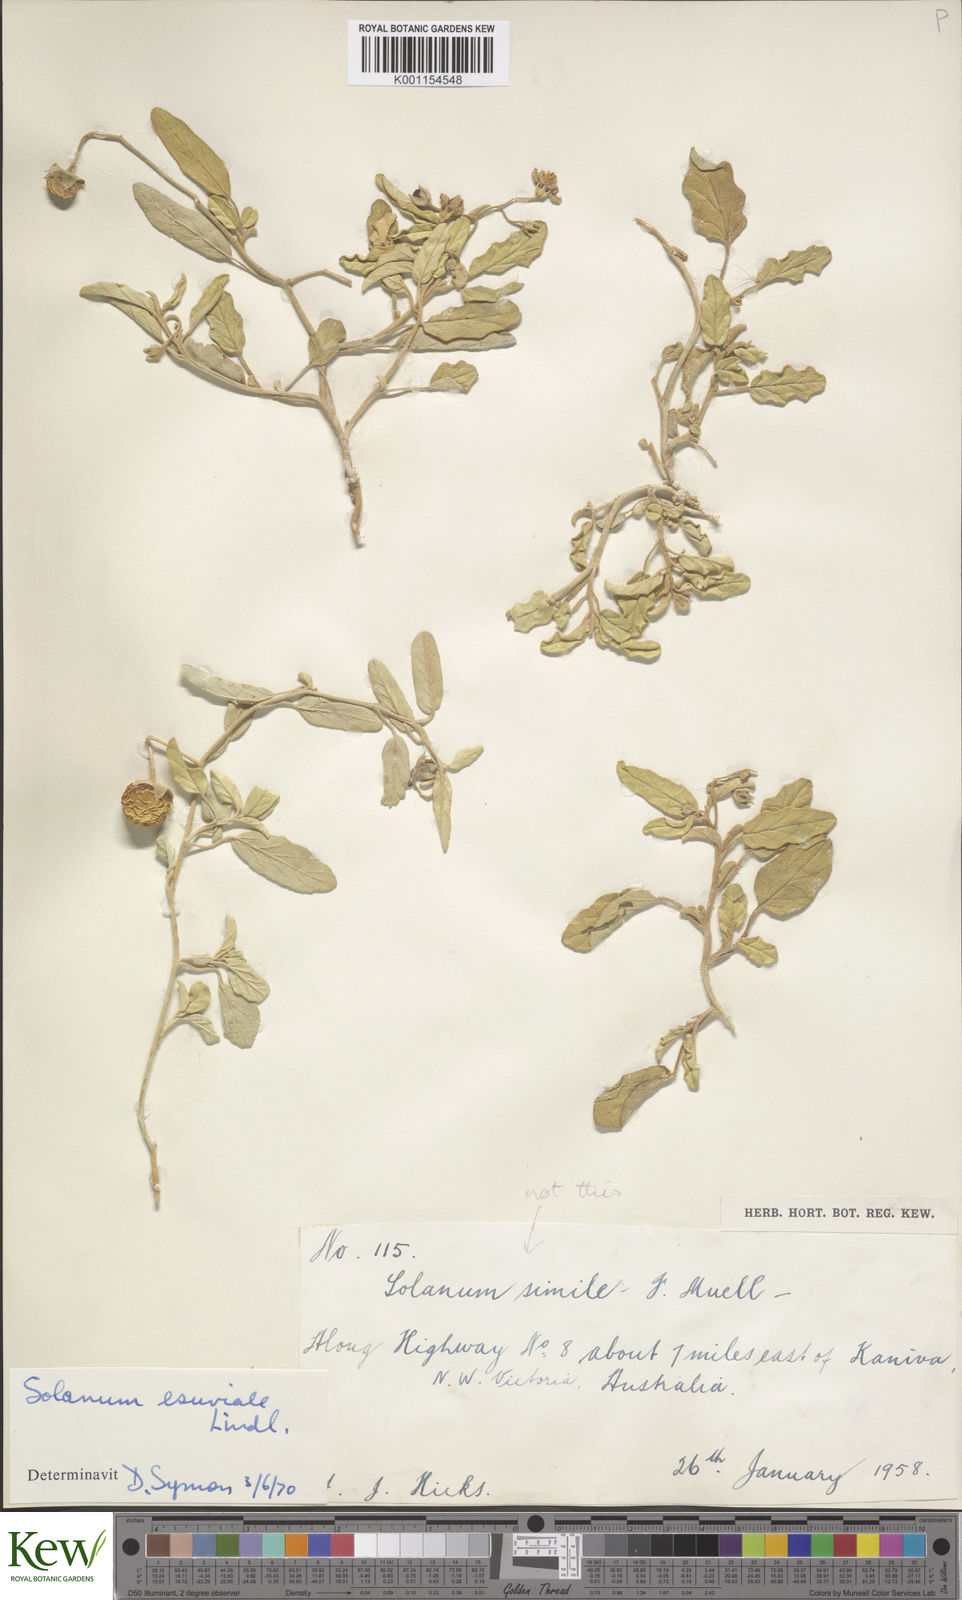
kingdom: Plantae
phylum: Tracheophyta
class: Magnoliopsida
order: Solanales
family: Solanaceae
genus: Solanum
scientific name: Solanum esuriale
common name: Wild tomato
